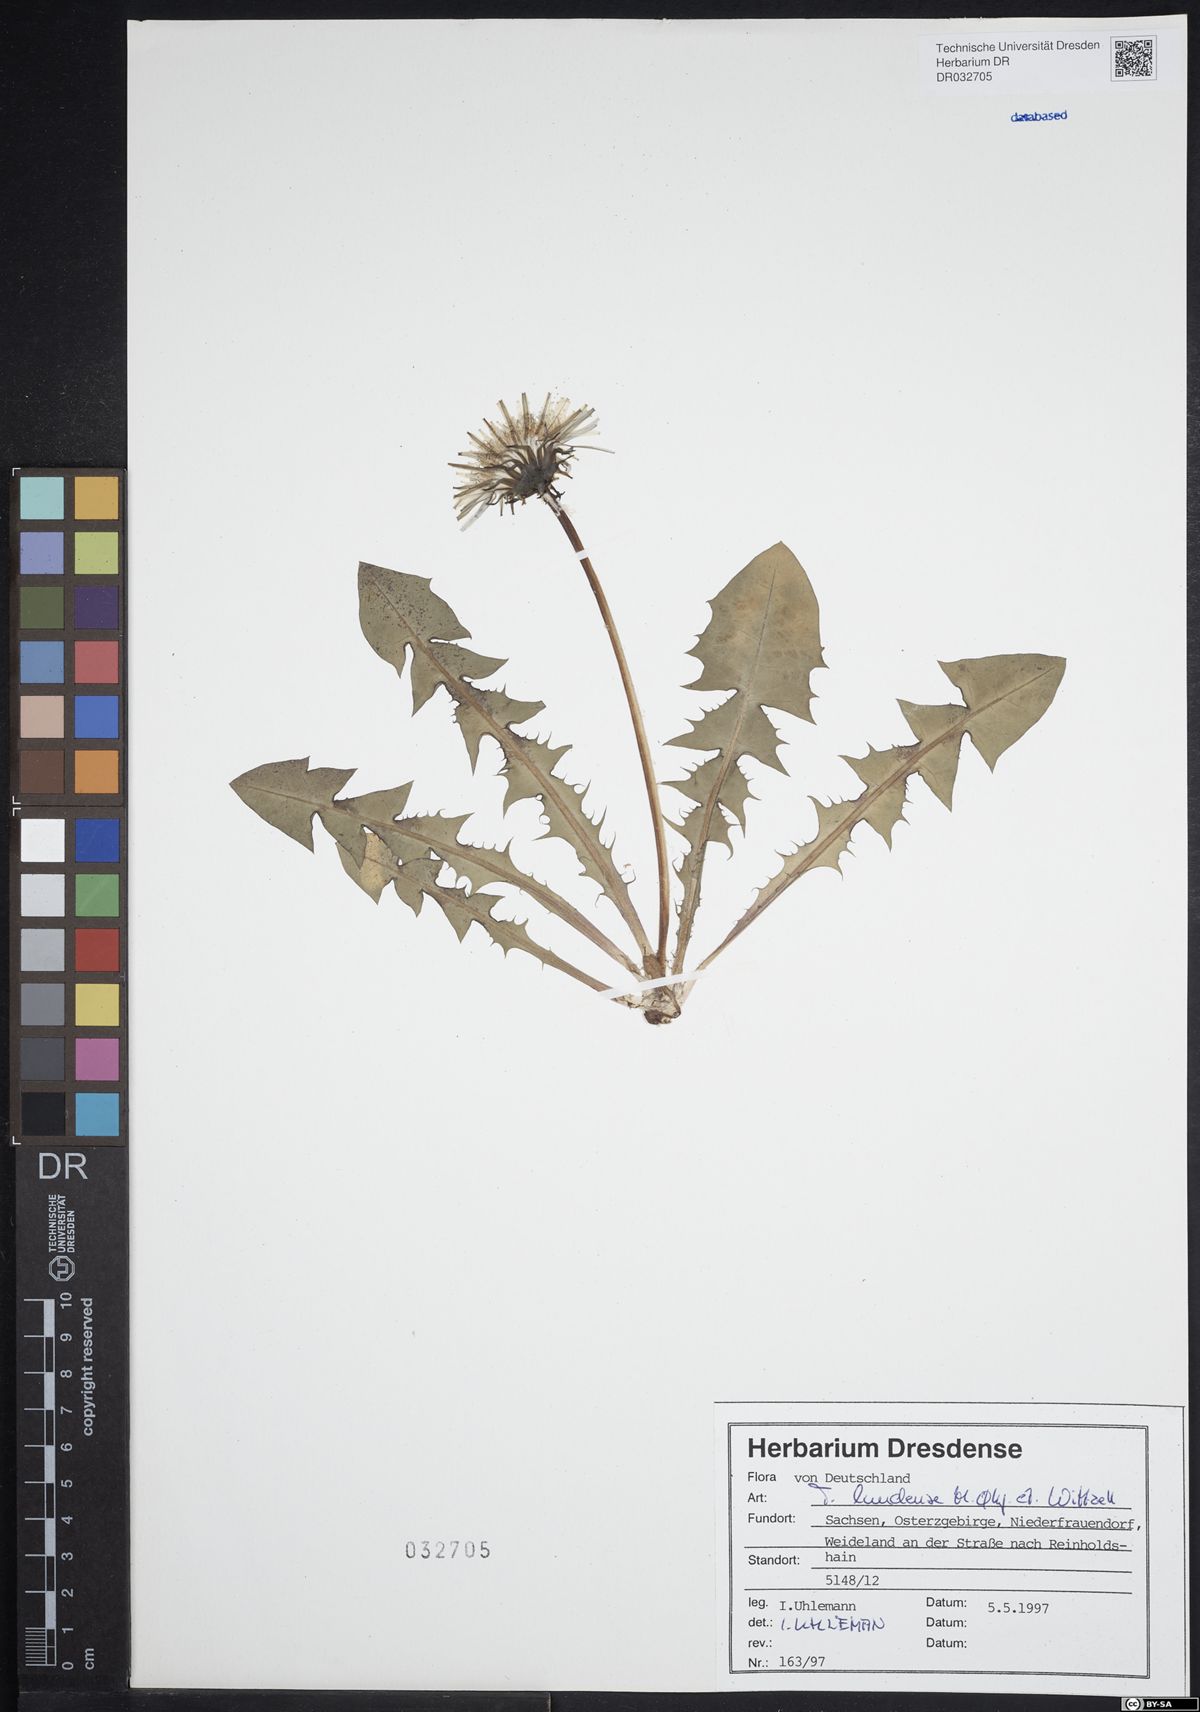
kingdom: Plantae
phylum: Tracheophyta
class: Magnoliopsida
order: Asterales
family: Asteraceae
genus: Taraxacum
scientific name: Taraxacum lundense
